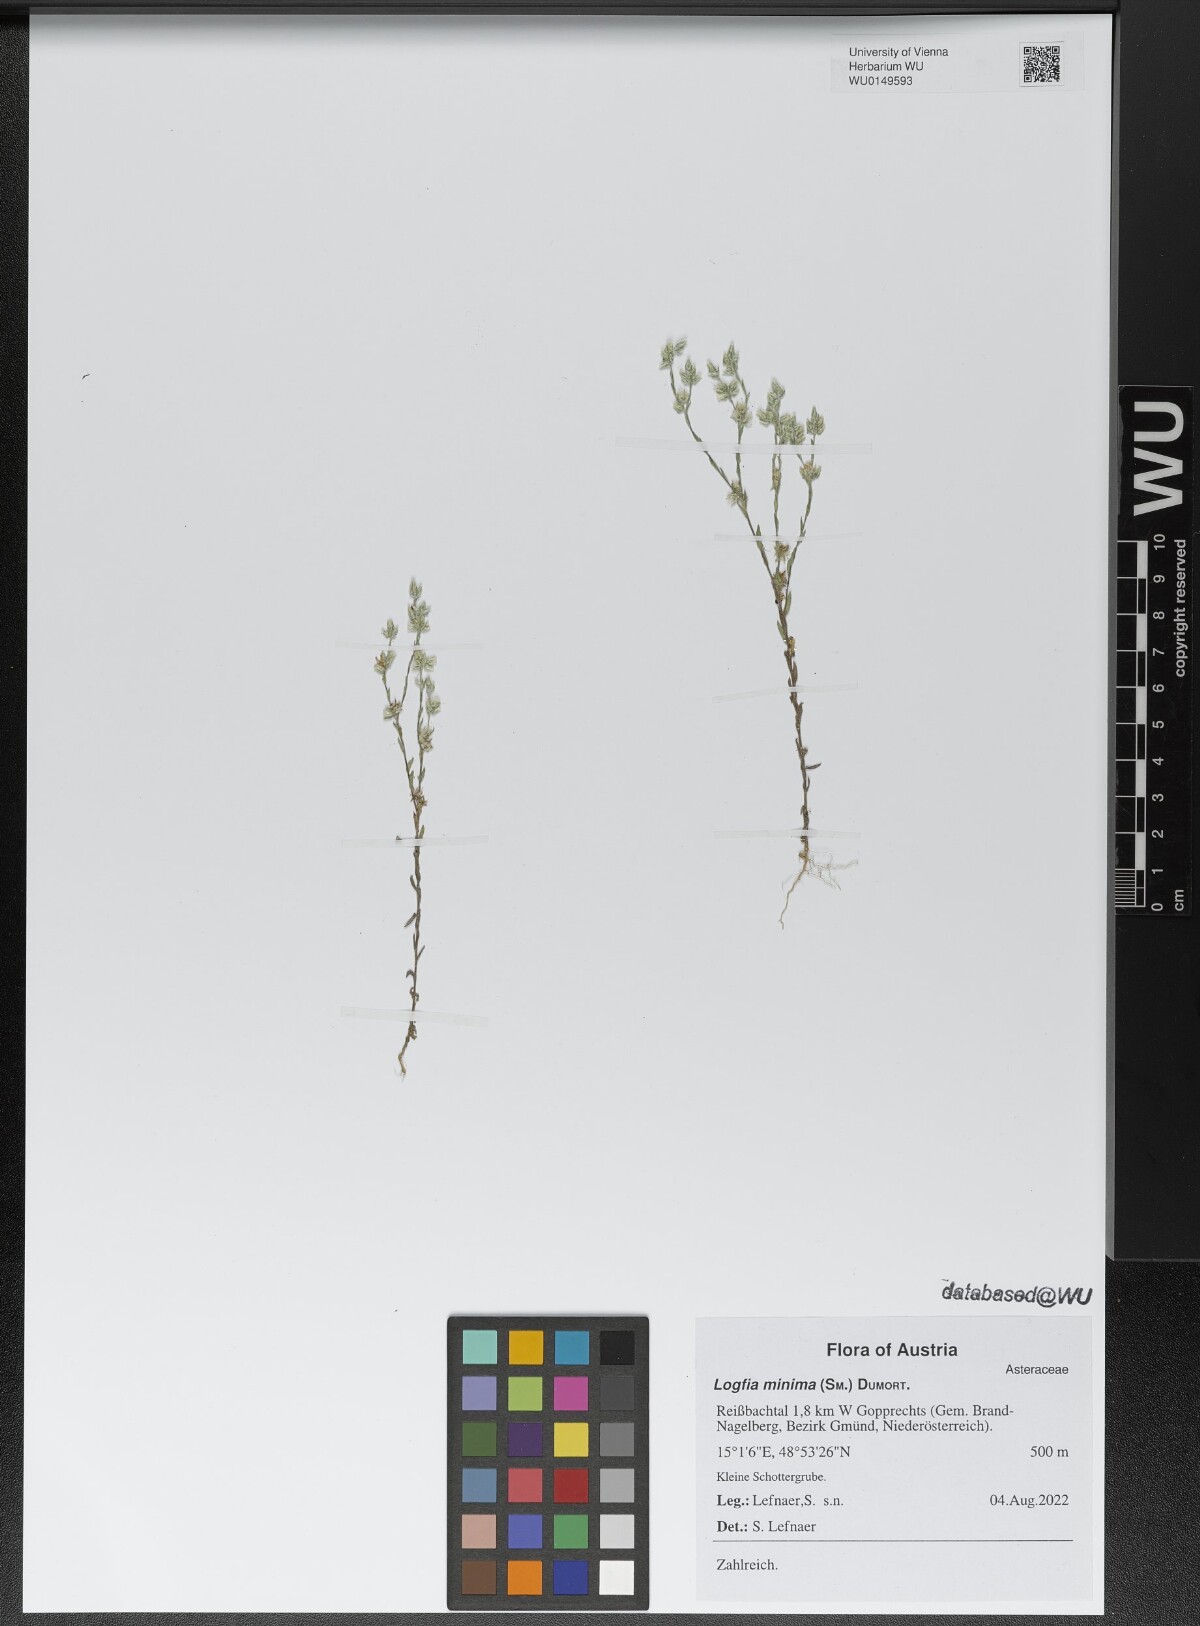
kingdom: Plantae
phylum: Tracheophyta
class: Magnoliopsida
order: Asterales
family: Asteraceae
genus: Logfia
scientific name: Logfia minima
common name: Little cottonrose
